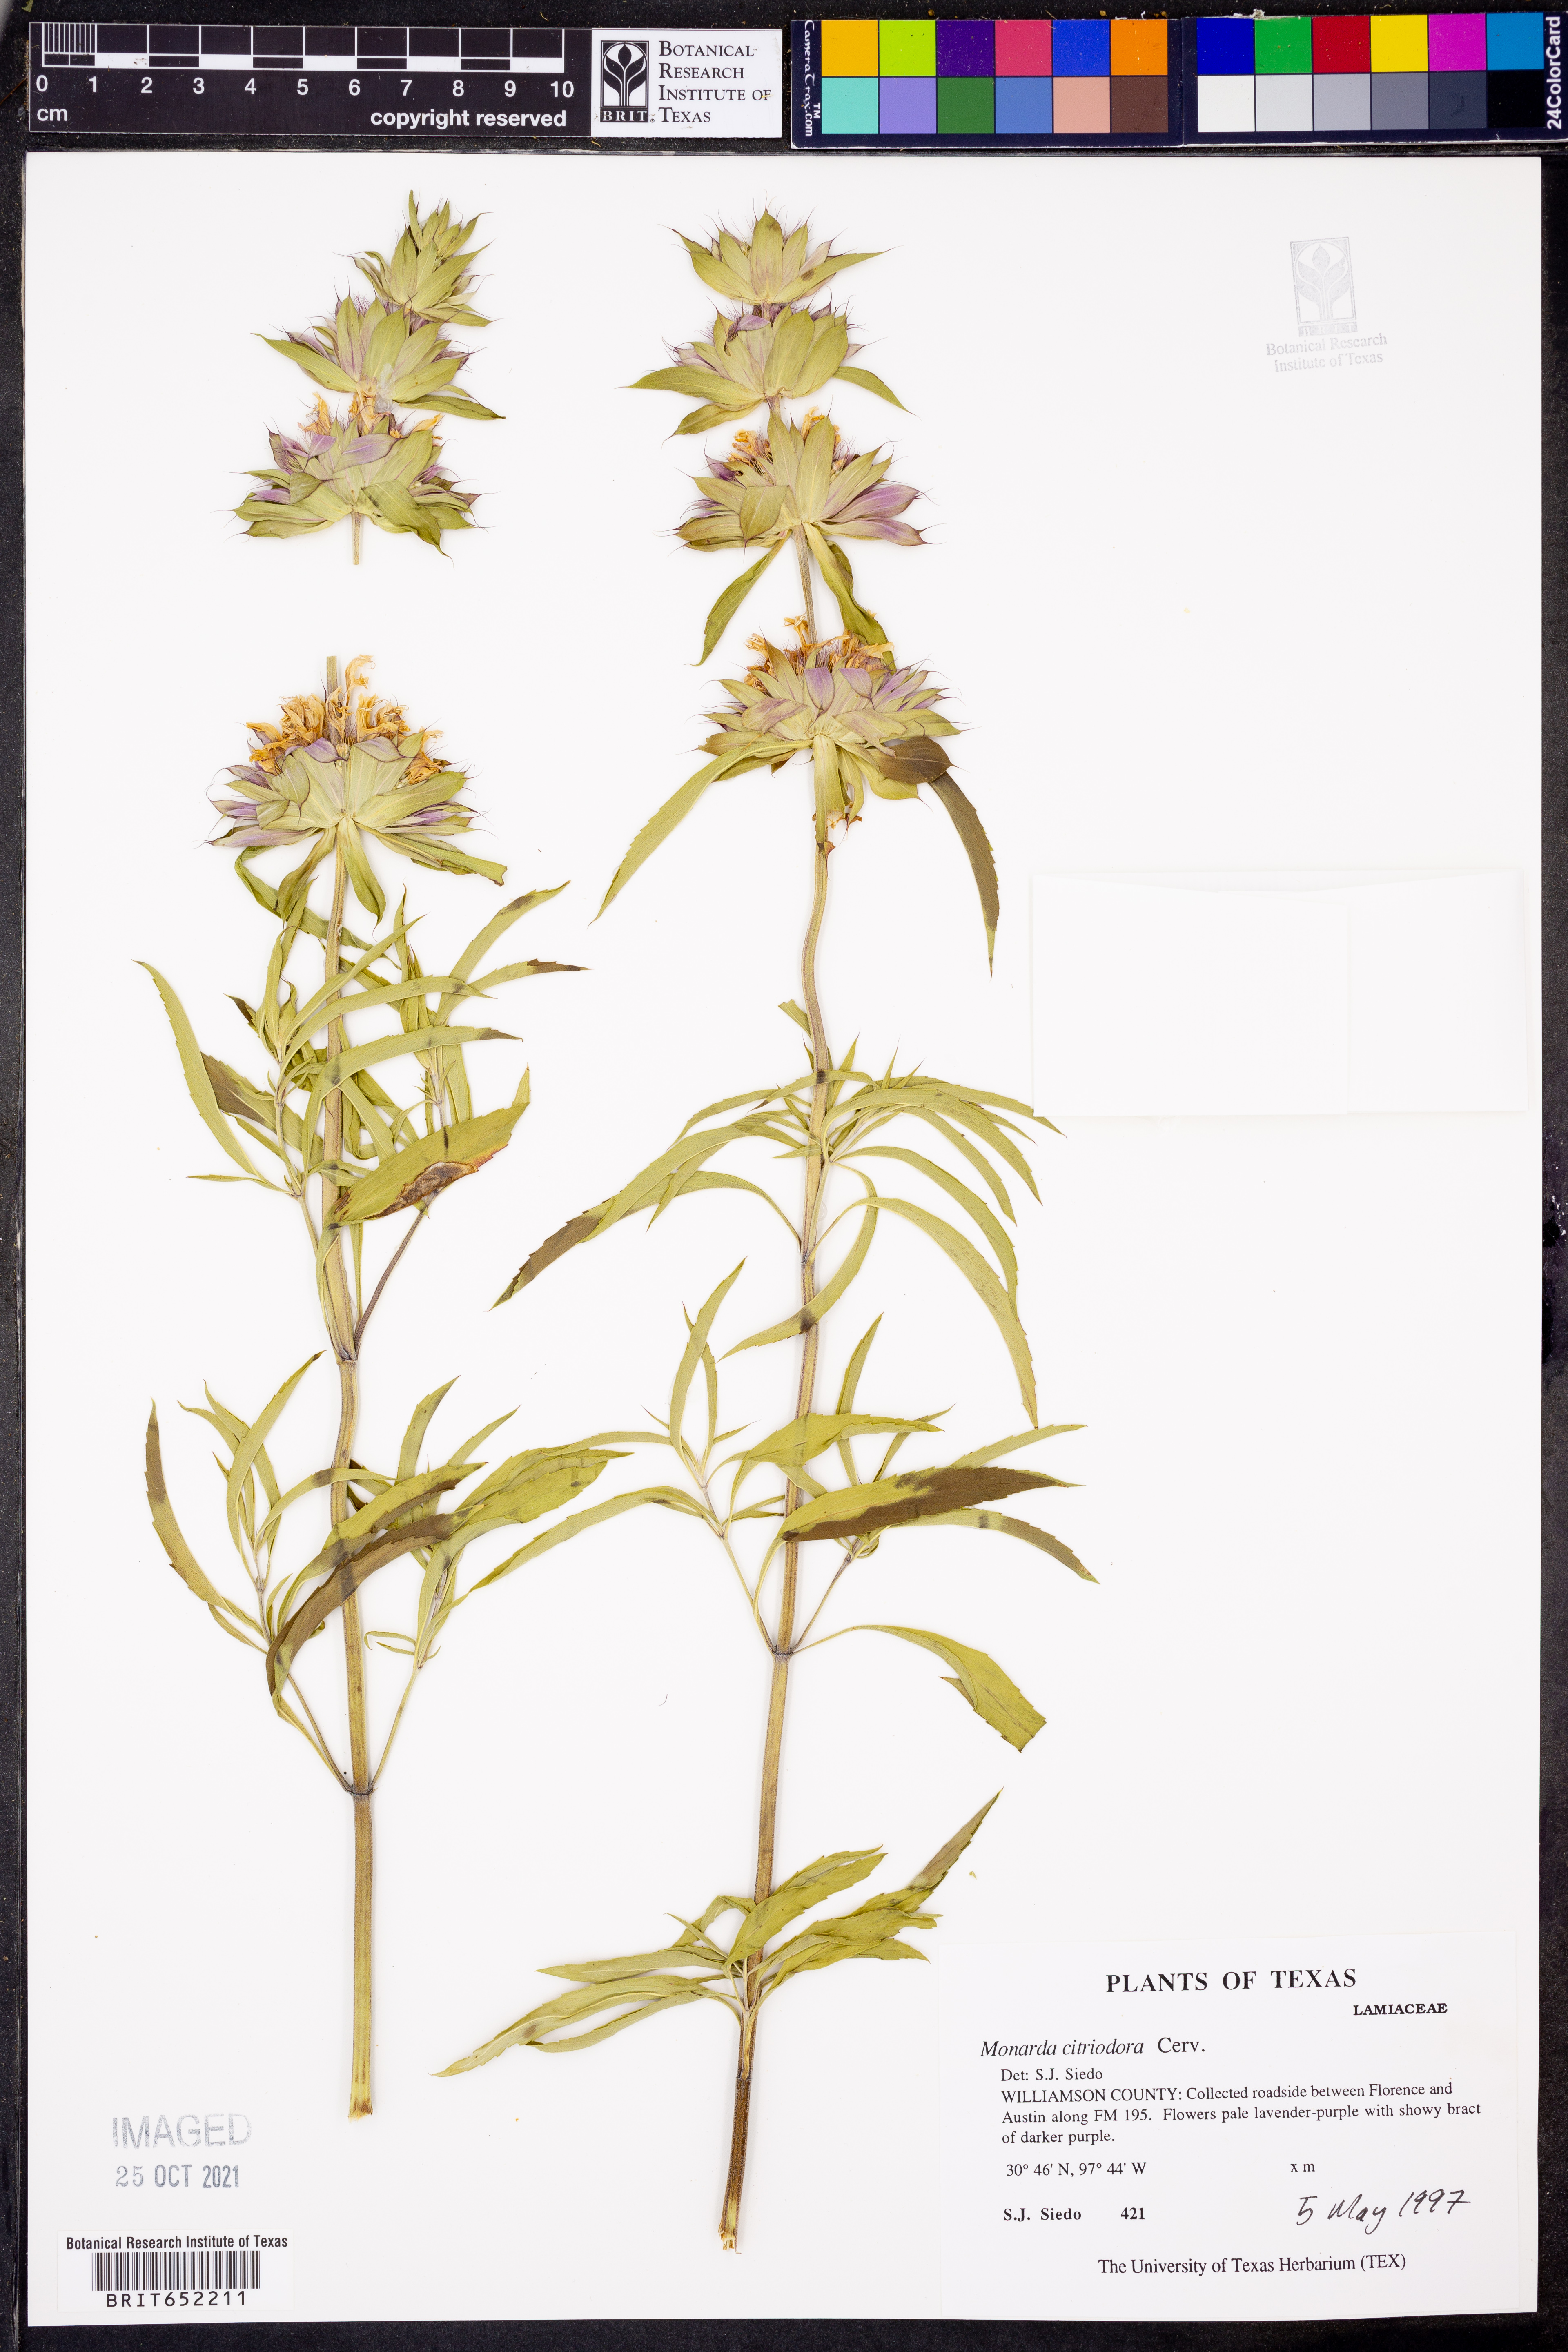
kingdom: Plantae
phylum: Tracheophyta
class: Magnoliopsida
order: Lamiales
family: Lamiaceae
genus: Monarda
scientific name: Monarda citriodora
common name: Lemon beebalm
